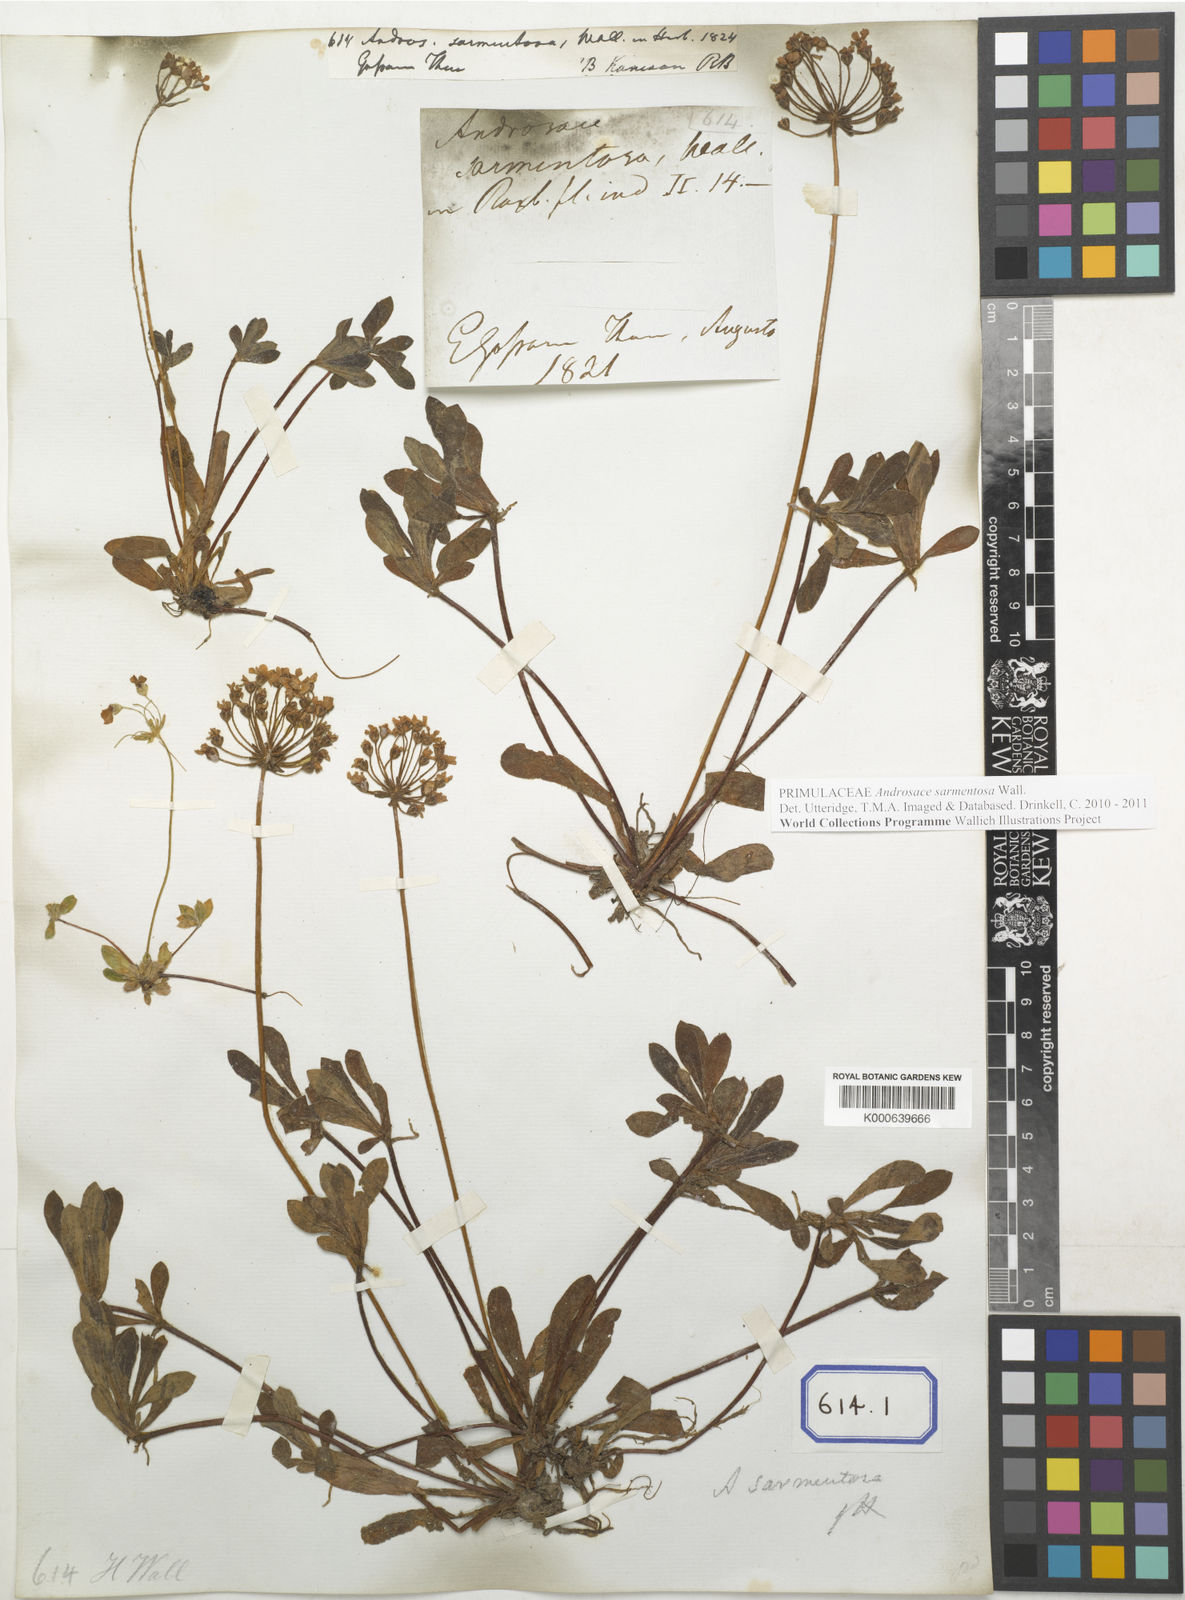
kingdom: Plantae
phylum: Tracheophyta
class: Magnoliopsida
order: Ericales
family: Primulaceae
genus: Androsace
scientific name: Androsace sarmentosa
